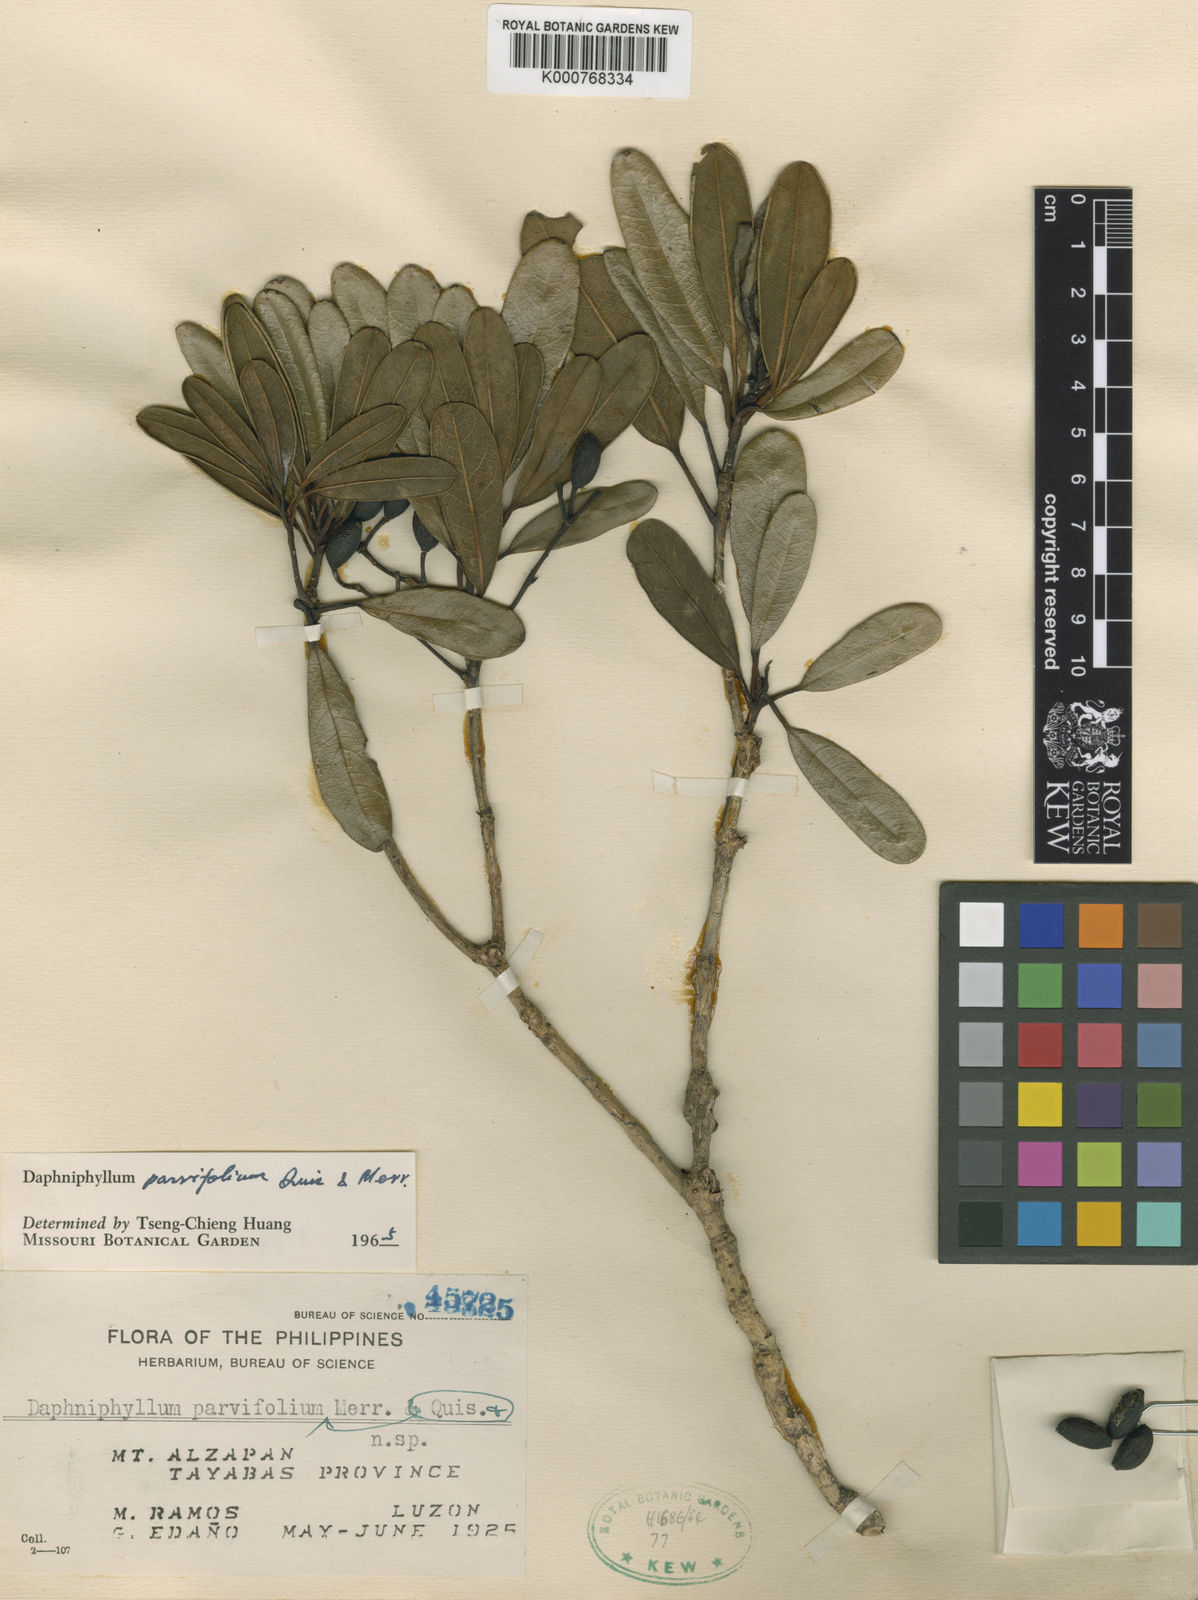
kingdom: Plantae
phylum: Tracheophyta
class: Magnoliopsida
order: Saxifragales
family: Daphniphyllaceae
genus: Daphniphyllum
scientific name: Daphniphyllum parvifolium
